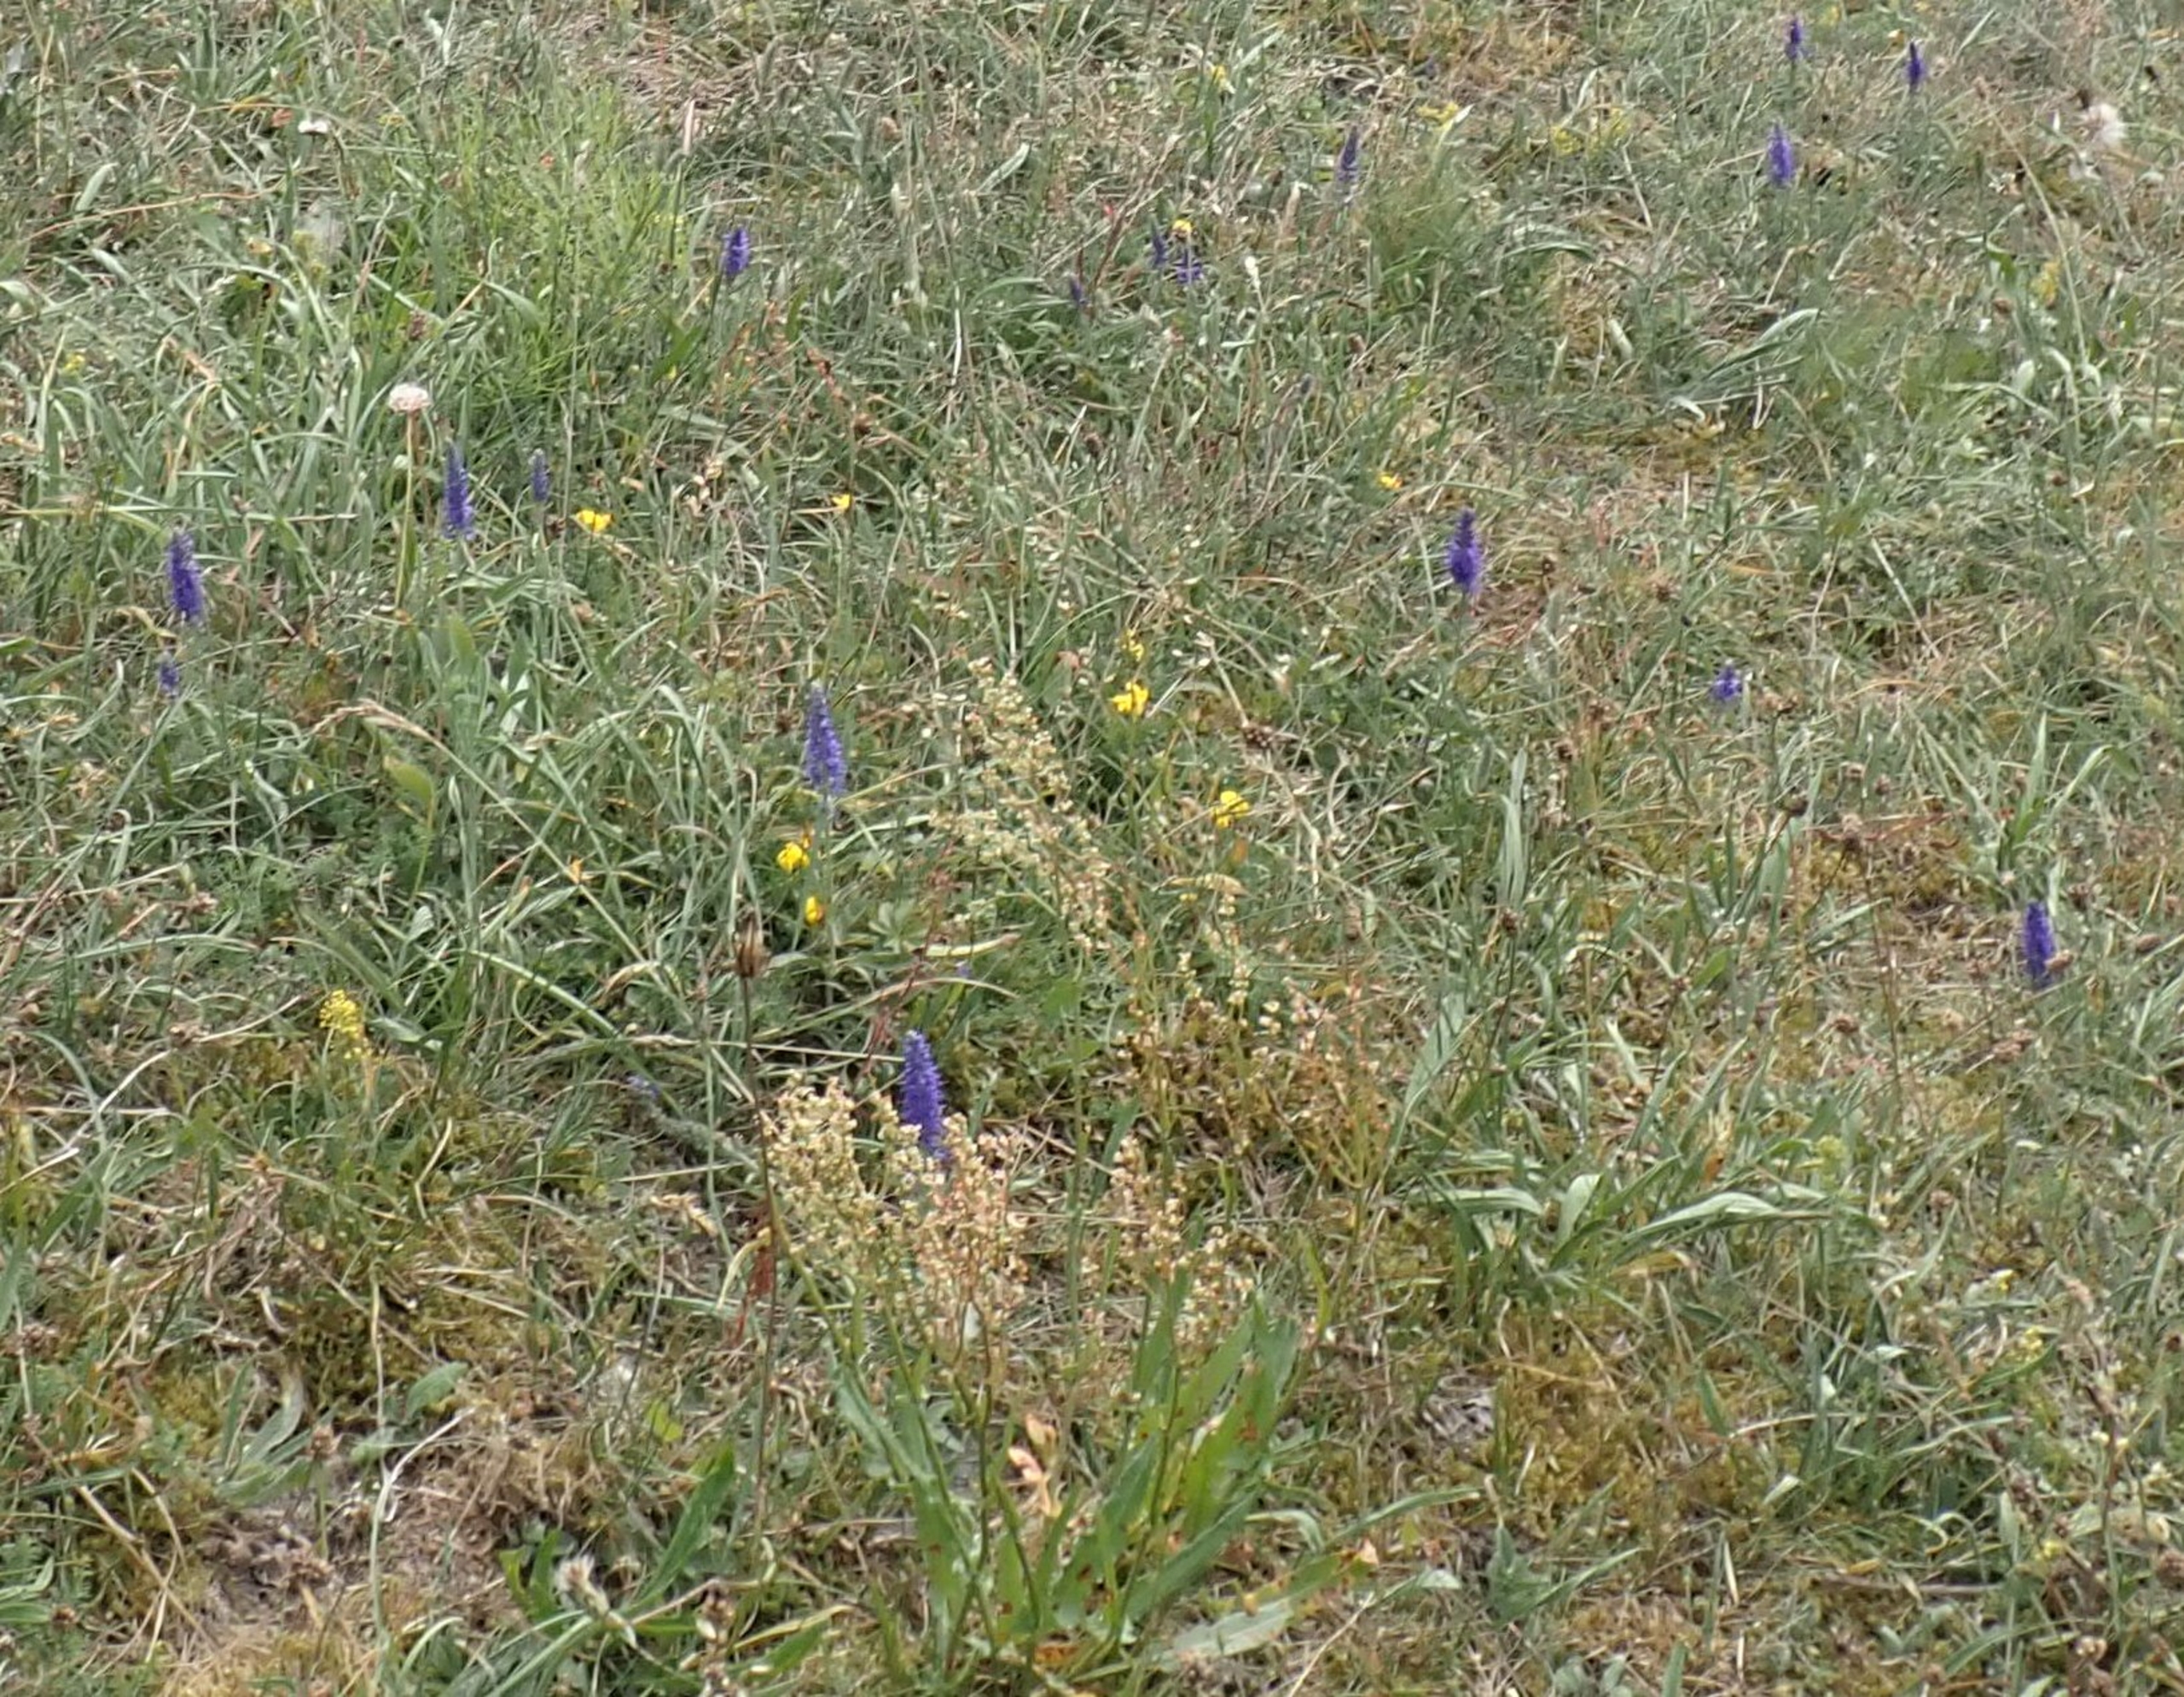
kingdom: Plantae
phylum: Tracheophyta
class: Magnoliopsida
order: Lamiales
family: Plantaginaceae
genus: Veronica
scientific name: Veronica spicata
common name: Aks-ærenpris
